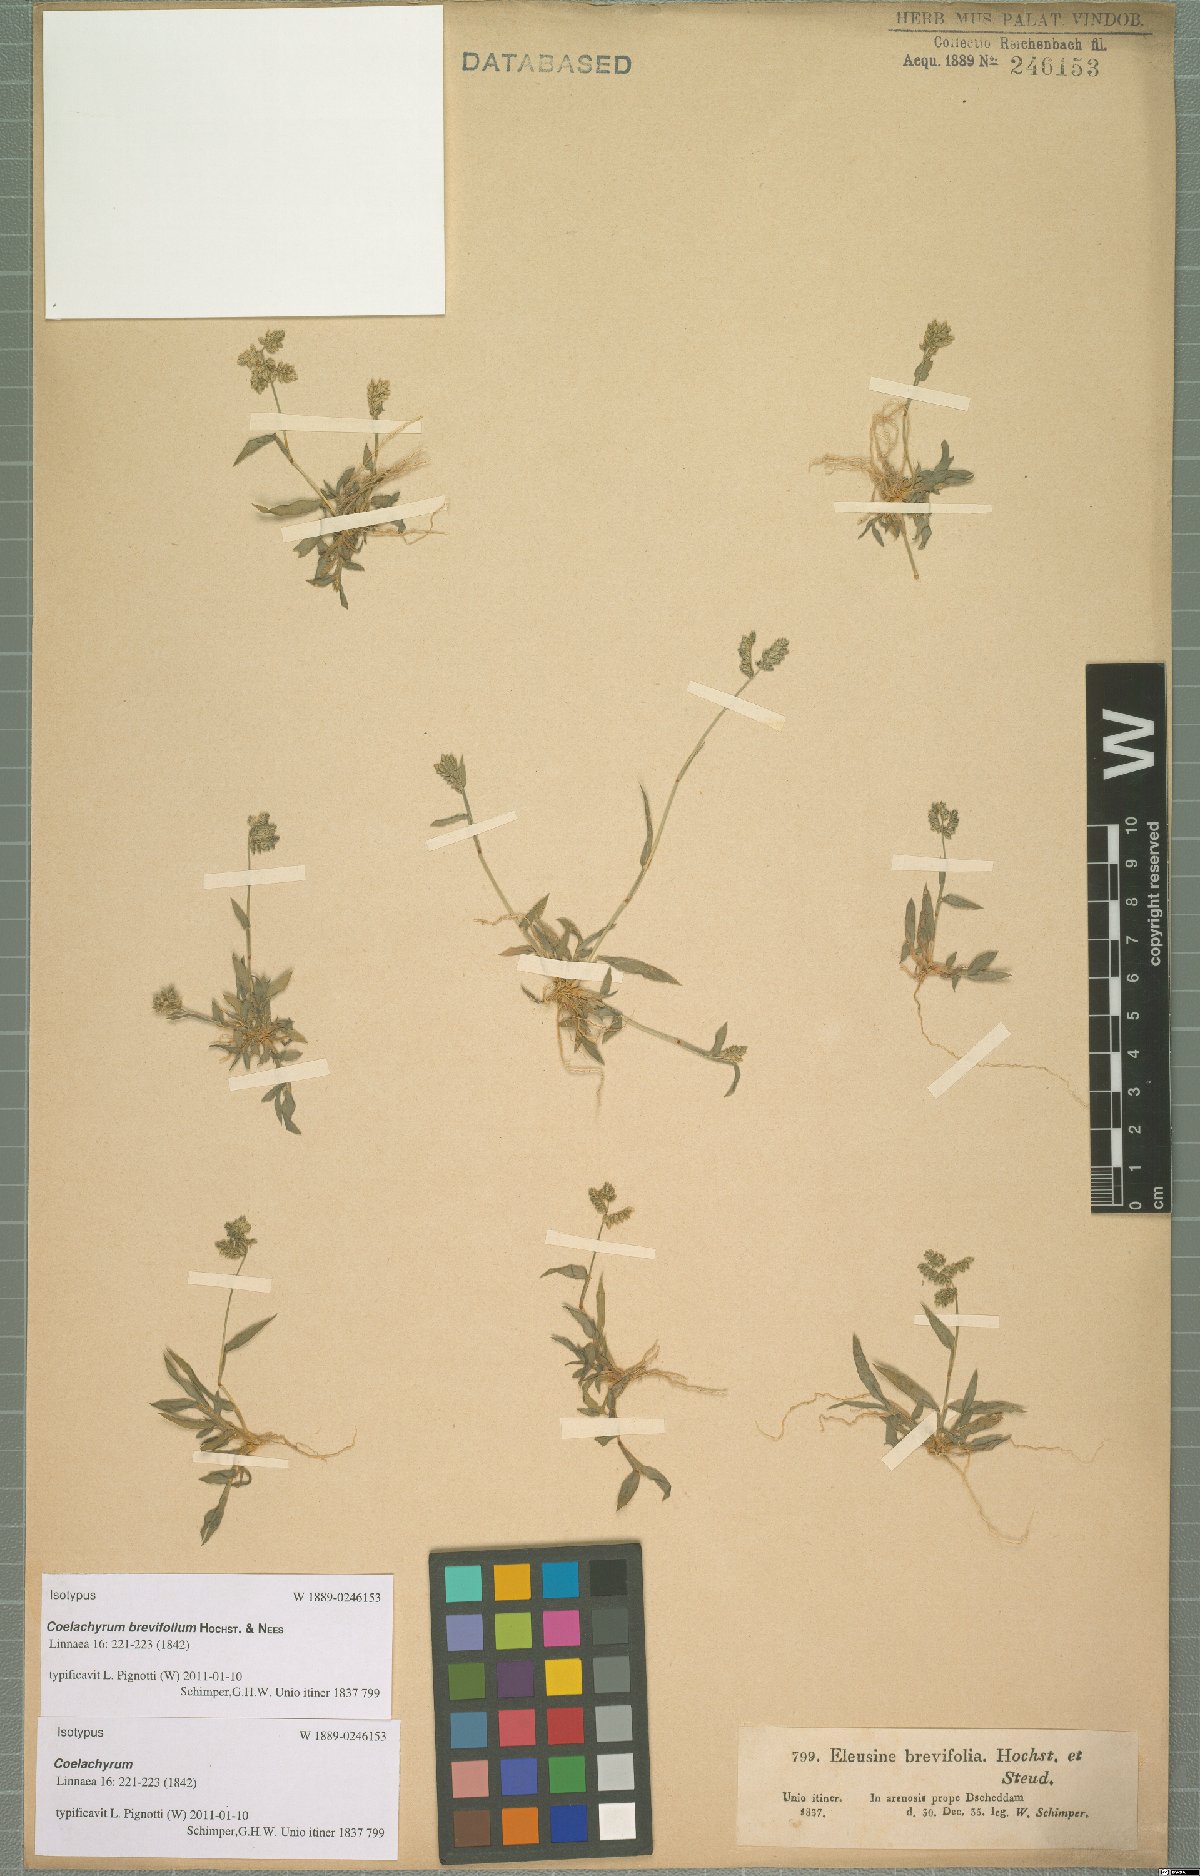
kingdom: Plantae
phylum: Tracheophyta
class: Liliopsida
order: Poales
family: Poaceae
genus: Coelachyrum
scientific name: Coelachyrum brevifolium
